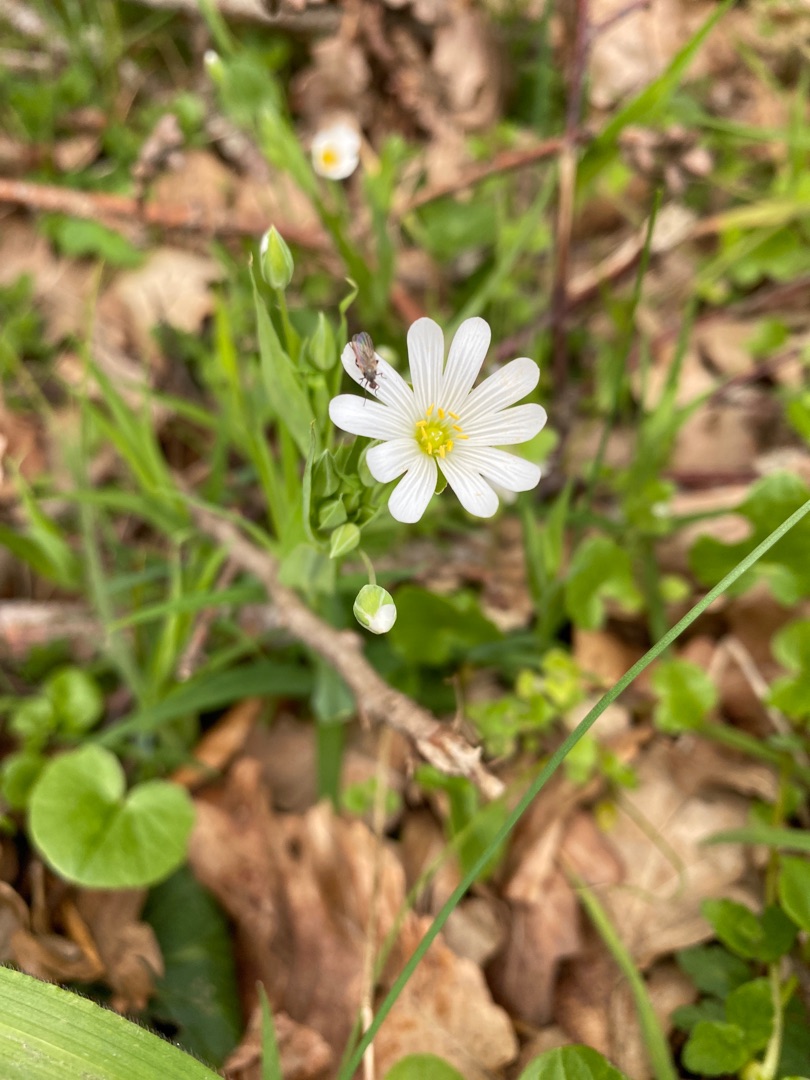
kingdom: Plantae
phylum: Tracheophyta
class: Magnoliopsida
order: Caryophyllales
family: Caryophyllaceae
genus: Rabelera
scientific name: Rabelera holostea
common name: Stor fladstjerne
